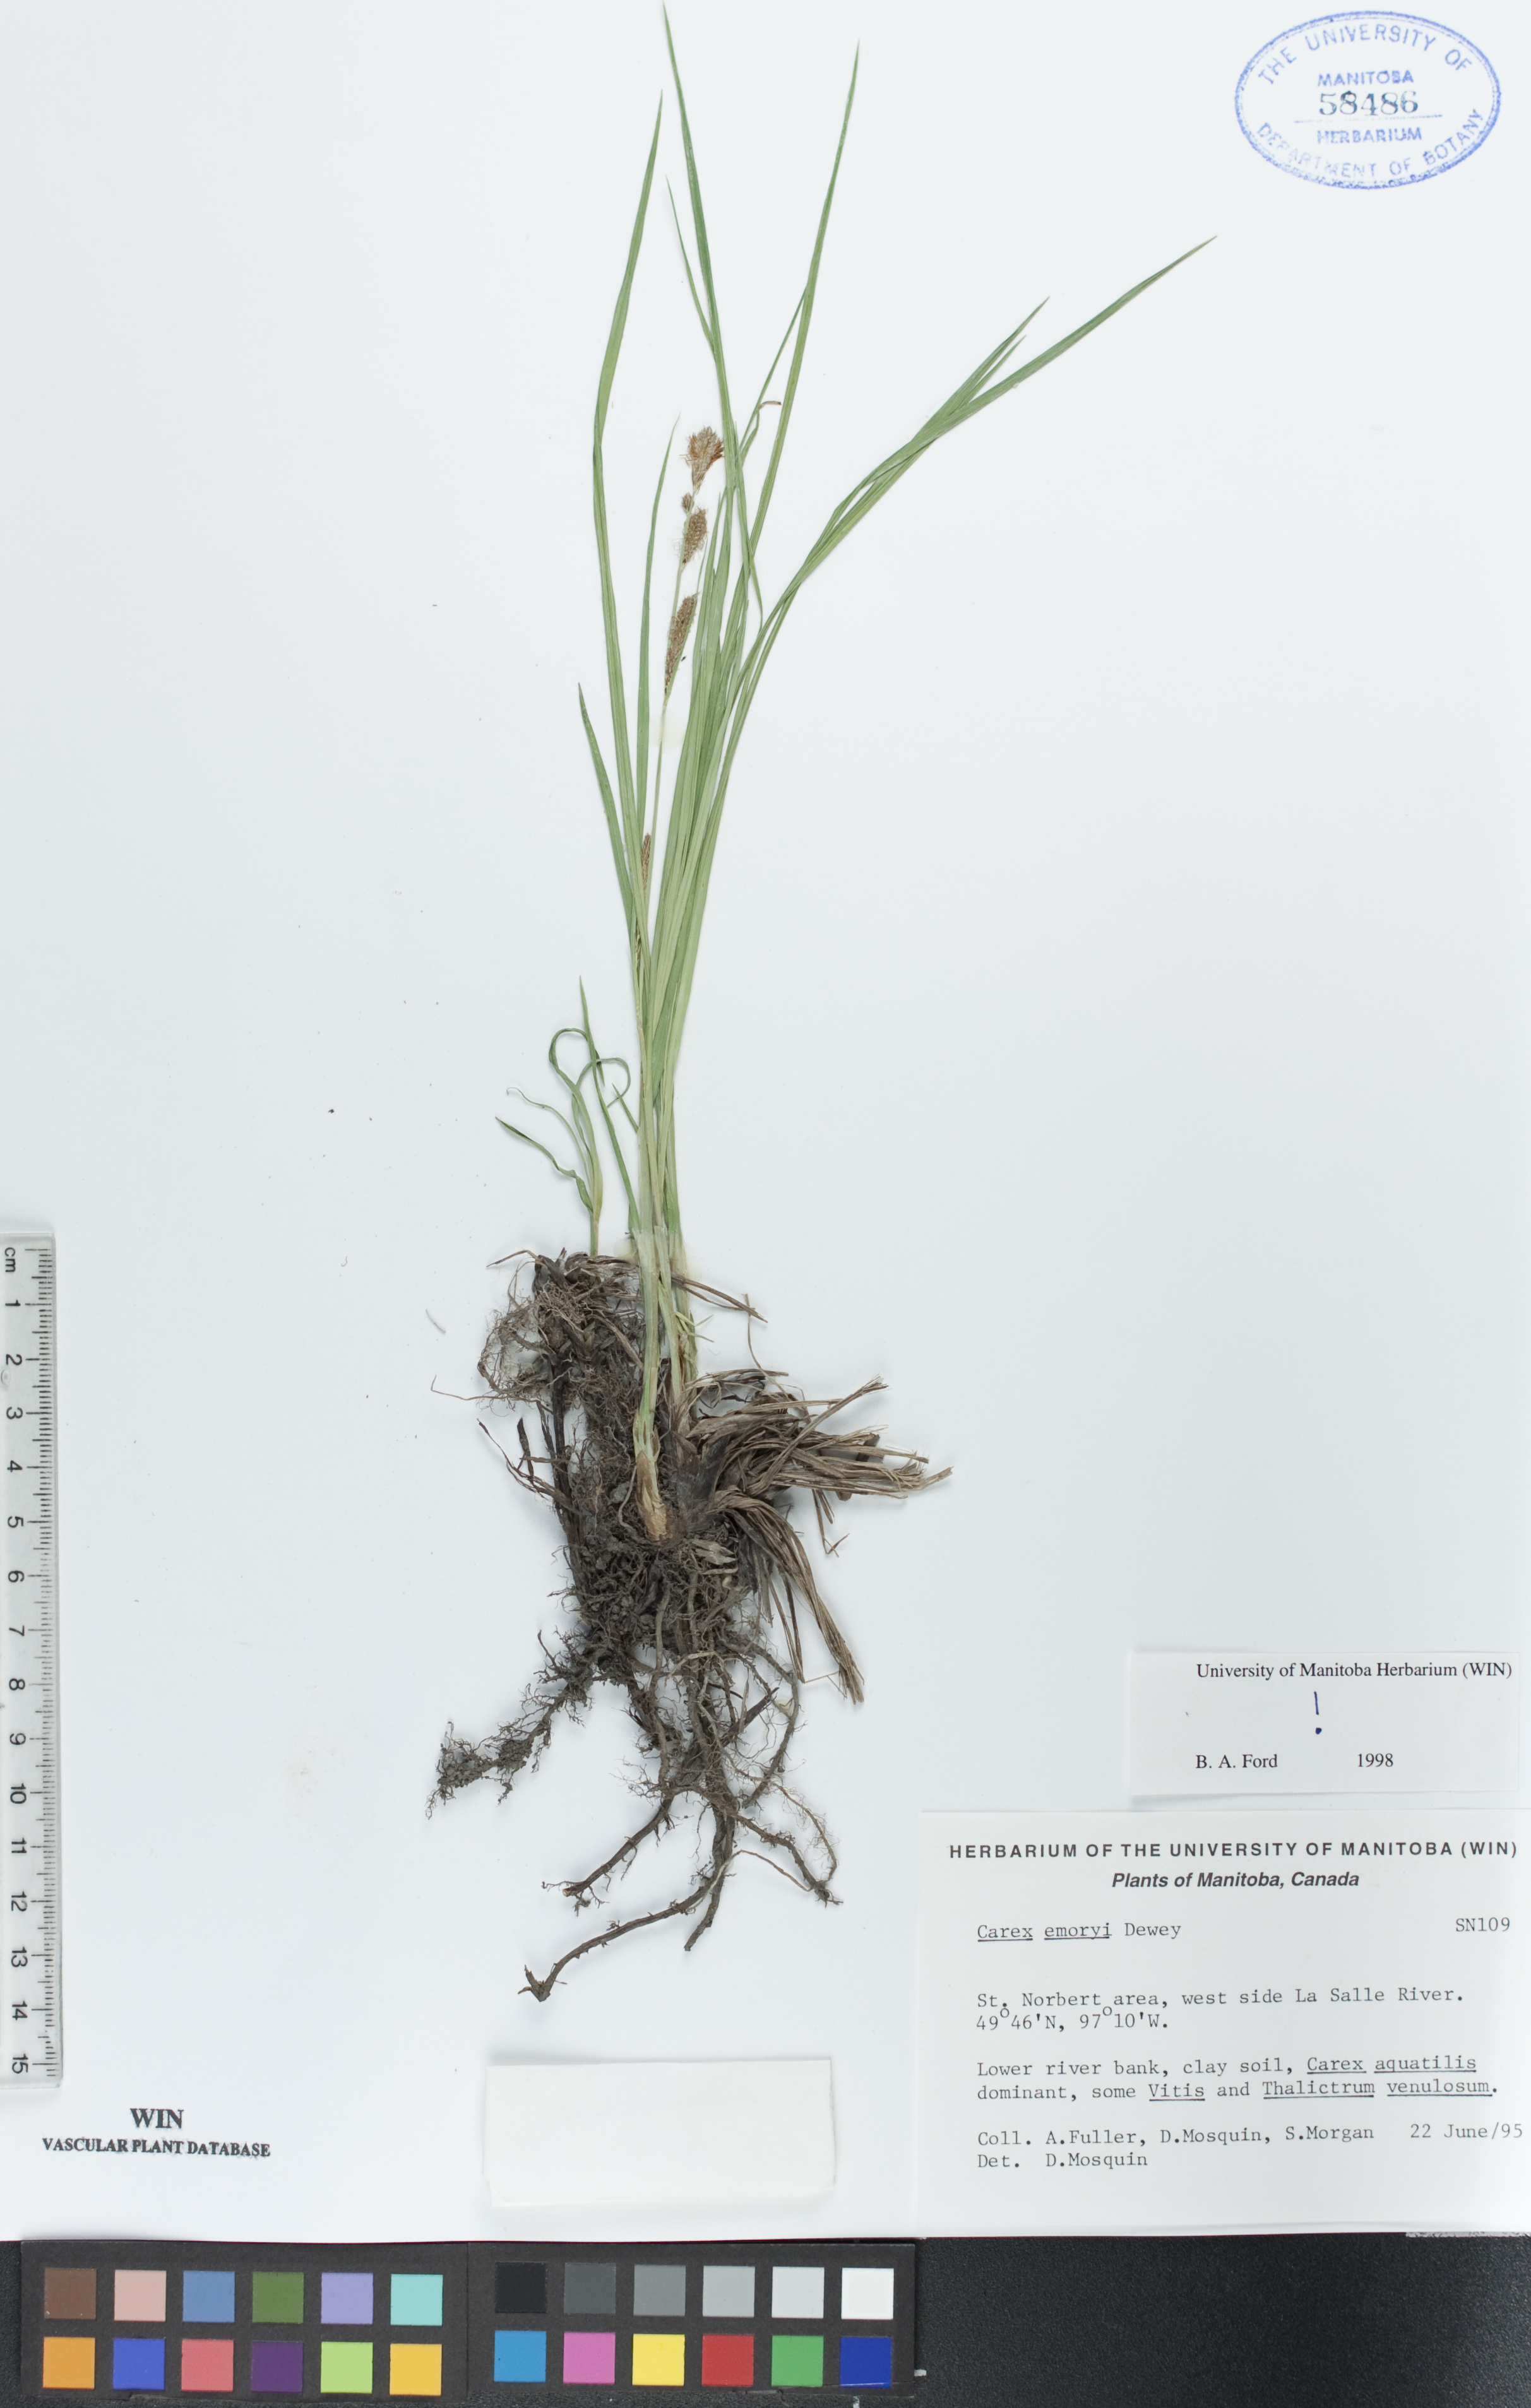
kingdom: Plantae
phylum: Tracheophyta
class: Liliopsida
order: Poales
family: Cyperaceae
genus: Carex
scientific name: Carex emoryi
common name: Emory's sedge
